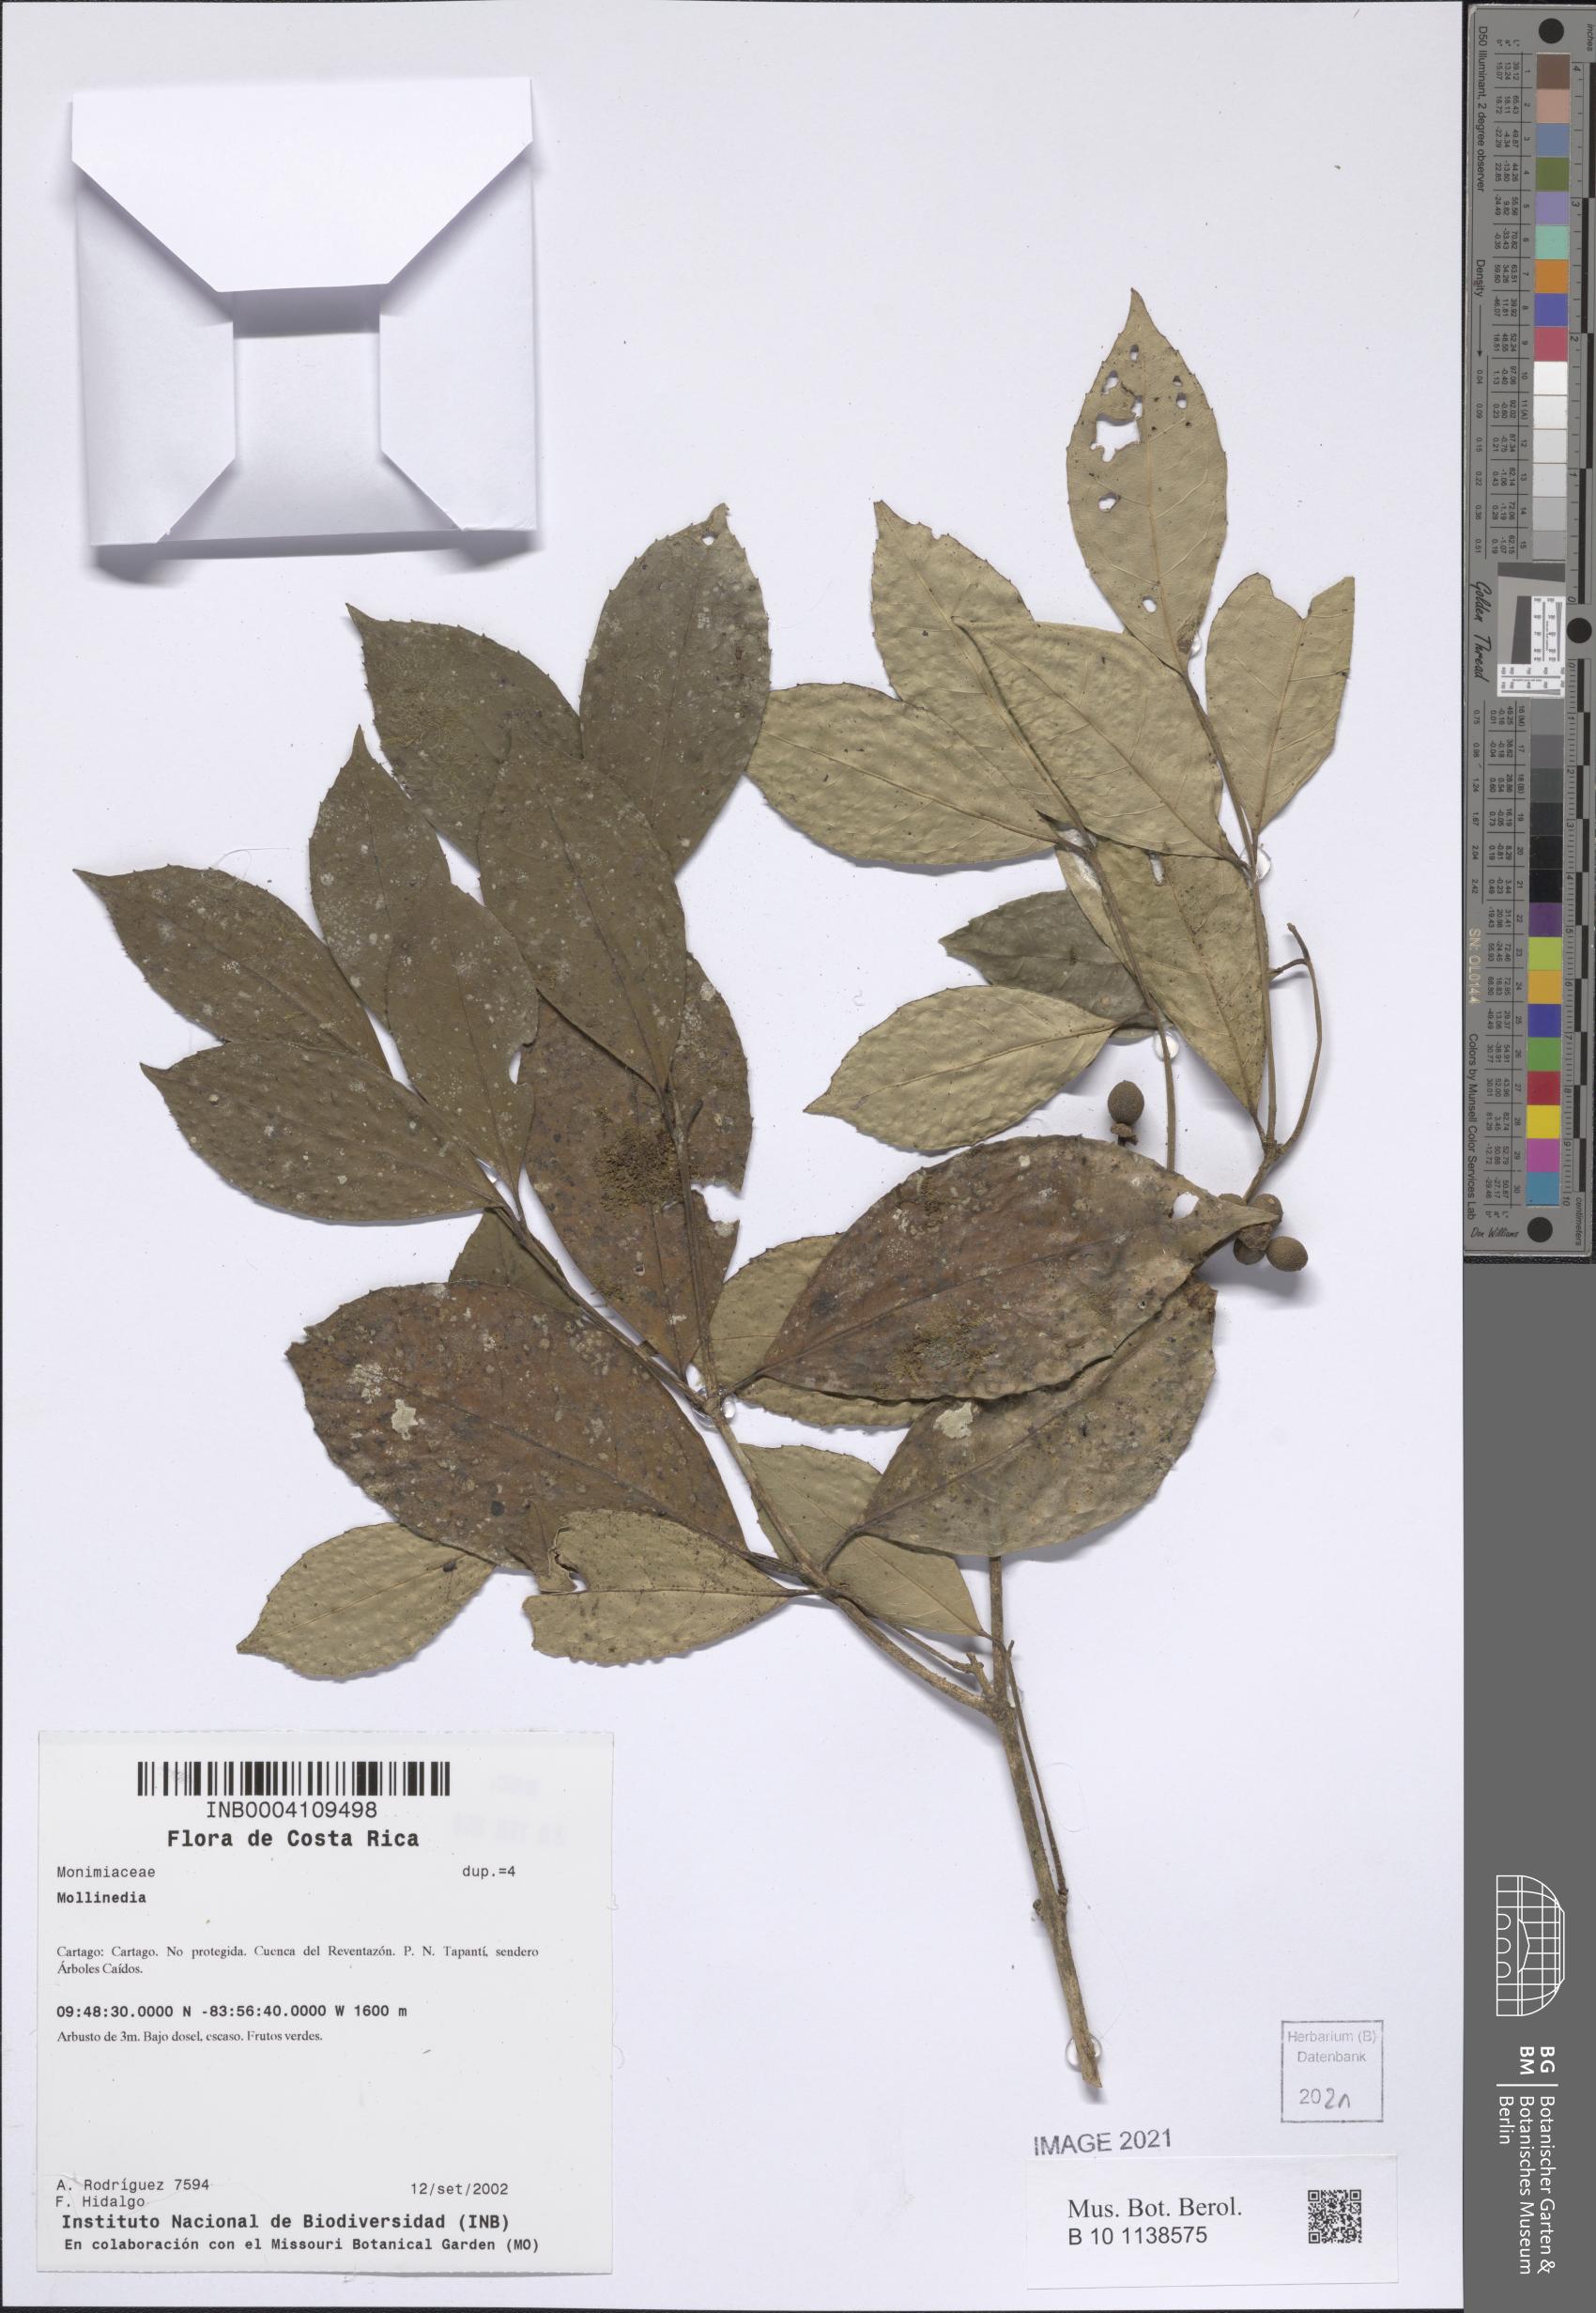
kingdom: Plantae
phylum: Tracheophyta
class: Magnoliopsida
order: Laurales
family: Monimiaceae
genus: Mollinedia
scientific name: Mollinedia viridiflora
